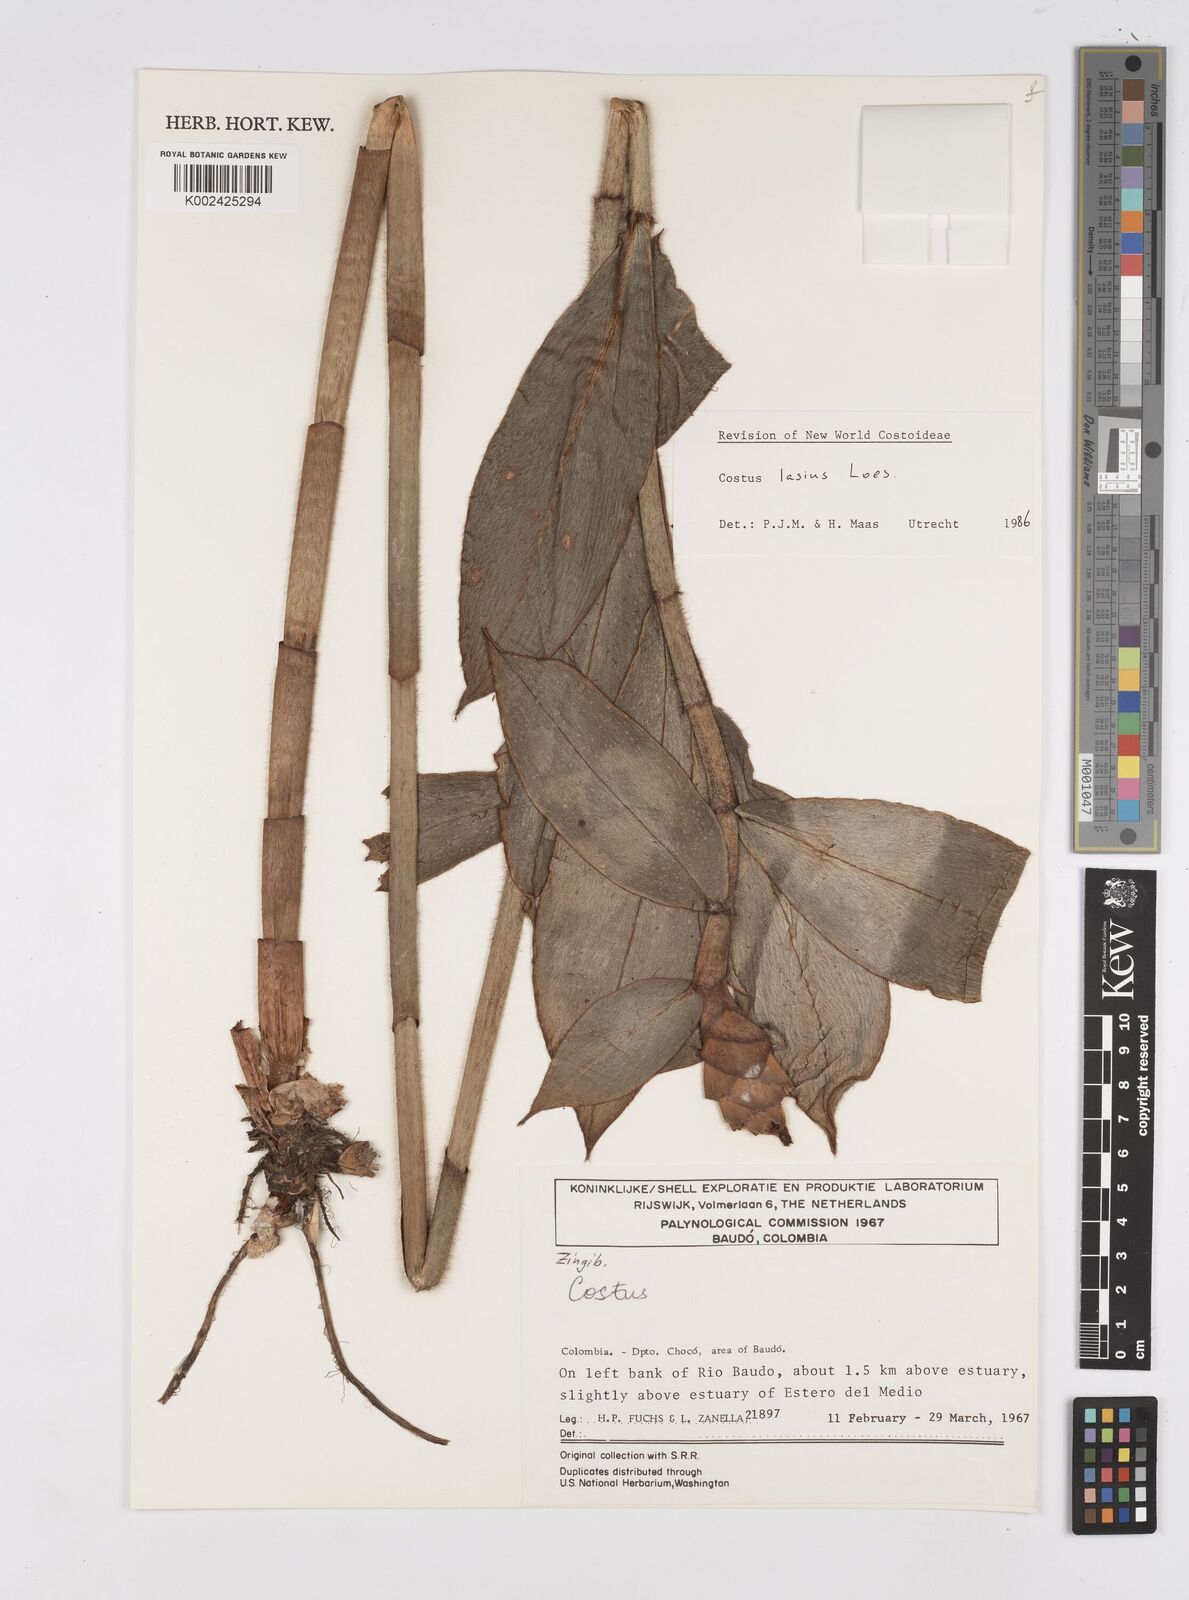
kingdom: Plantae
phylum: Tracheophyta
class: Liliopsida
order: Zingiberales
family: Costaceae
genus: Costus
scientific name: Costus lasius
